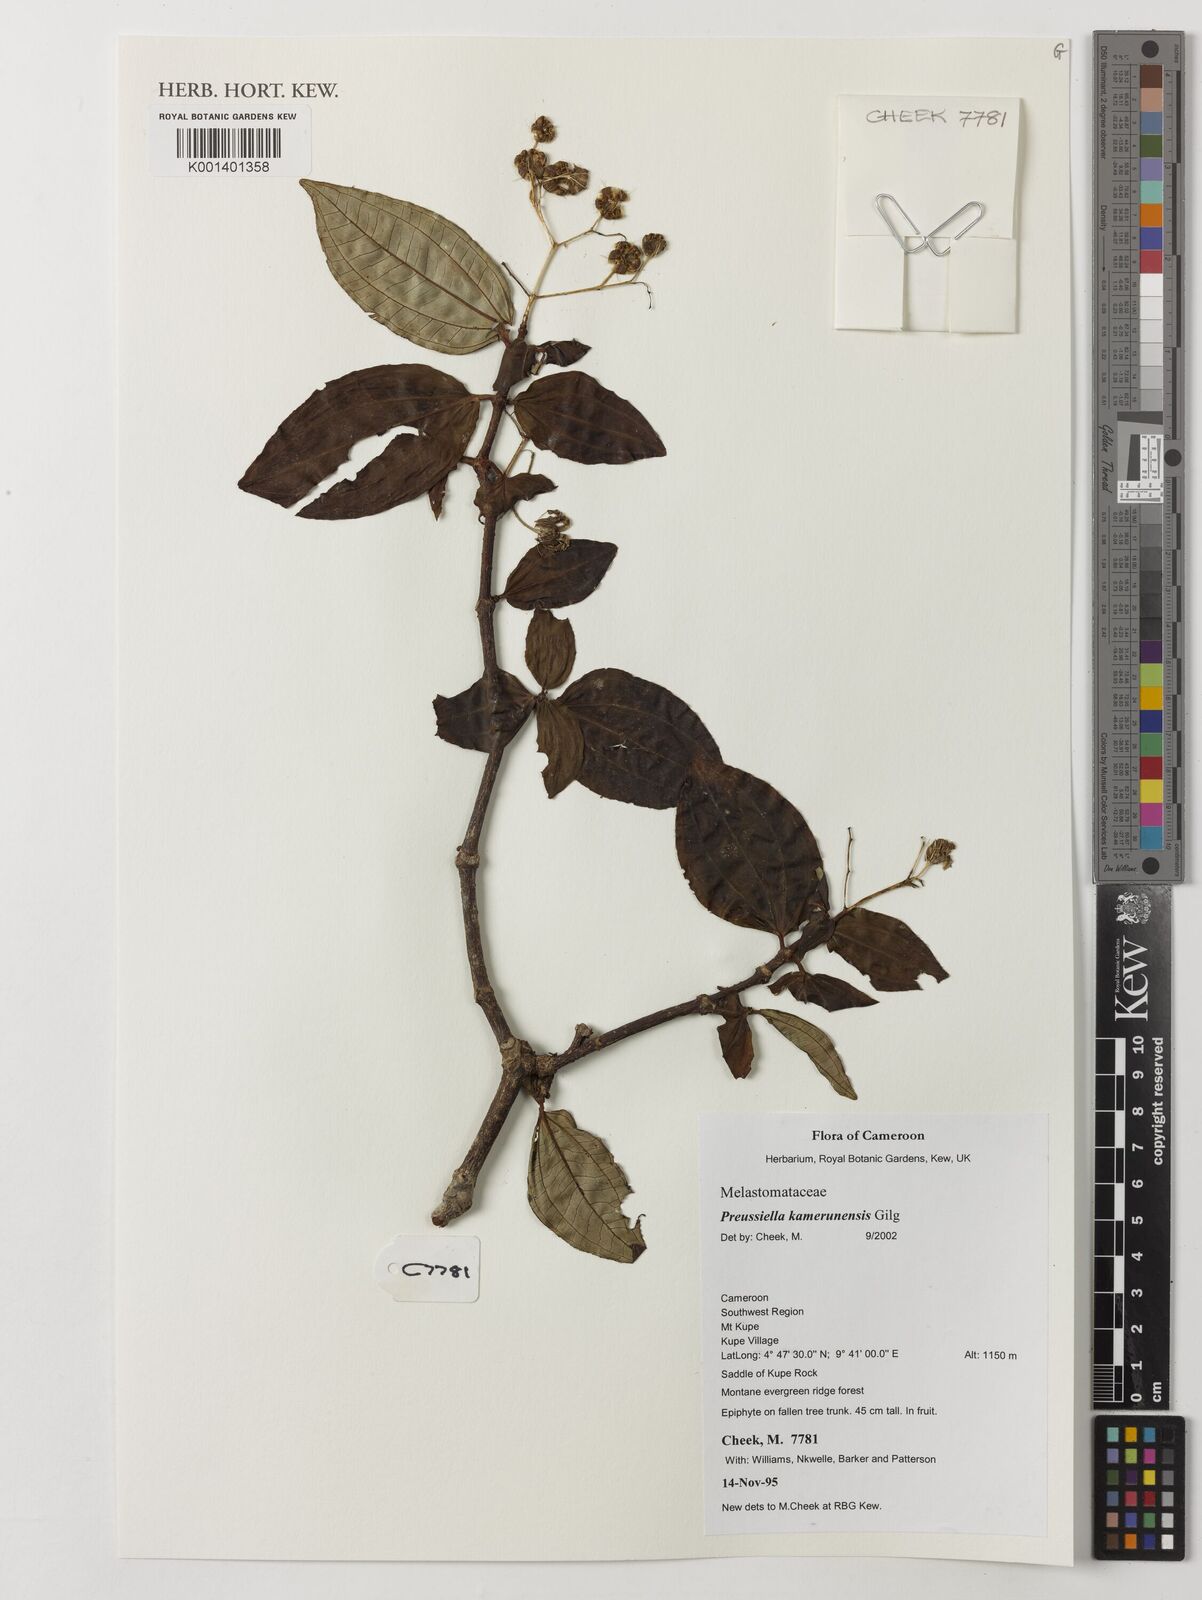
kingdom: Plantae
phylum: Tracheophyta
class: Magnoliopsida
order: Myrtales
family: Melastomataceae
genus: Preussiella
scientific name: Preussiella kamerunensis
